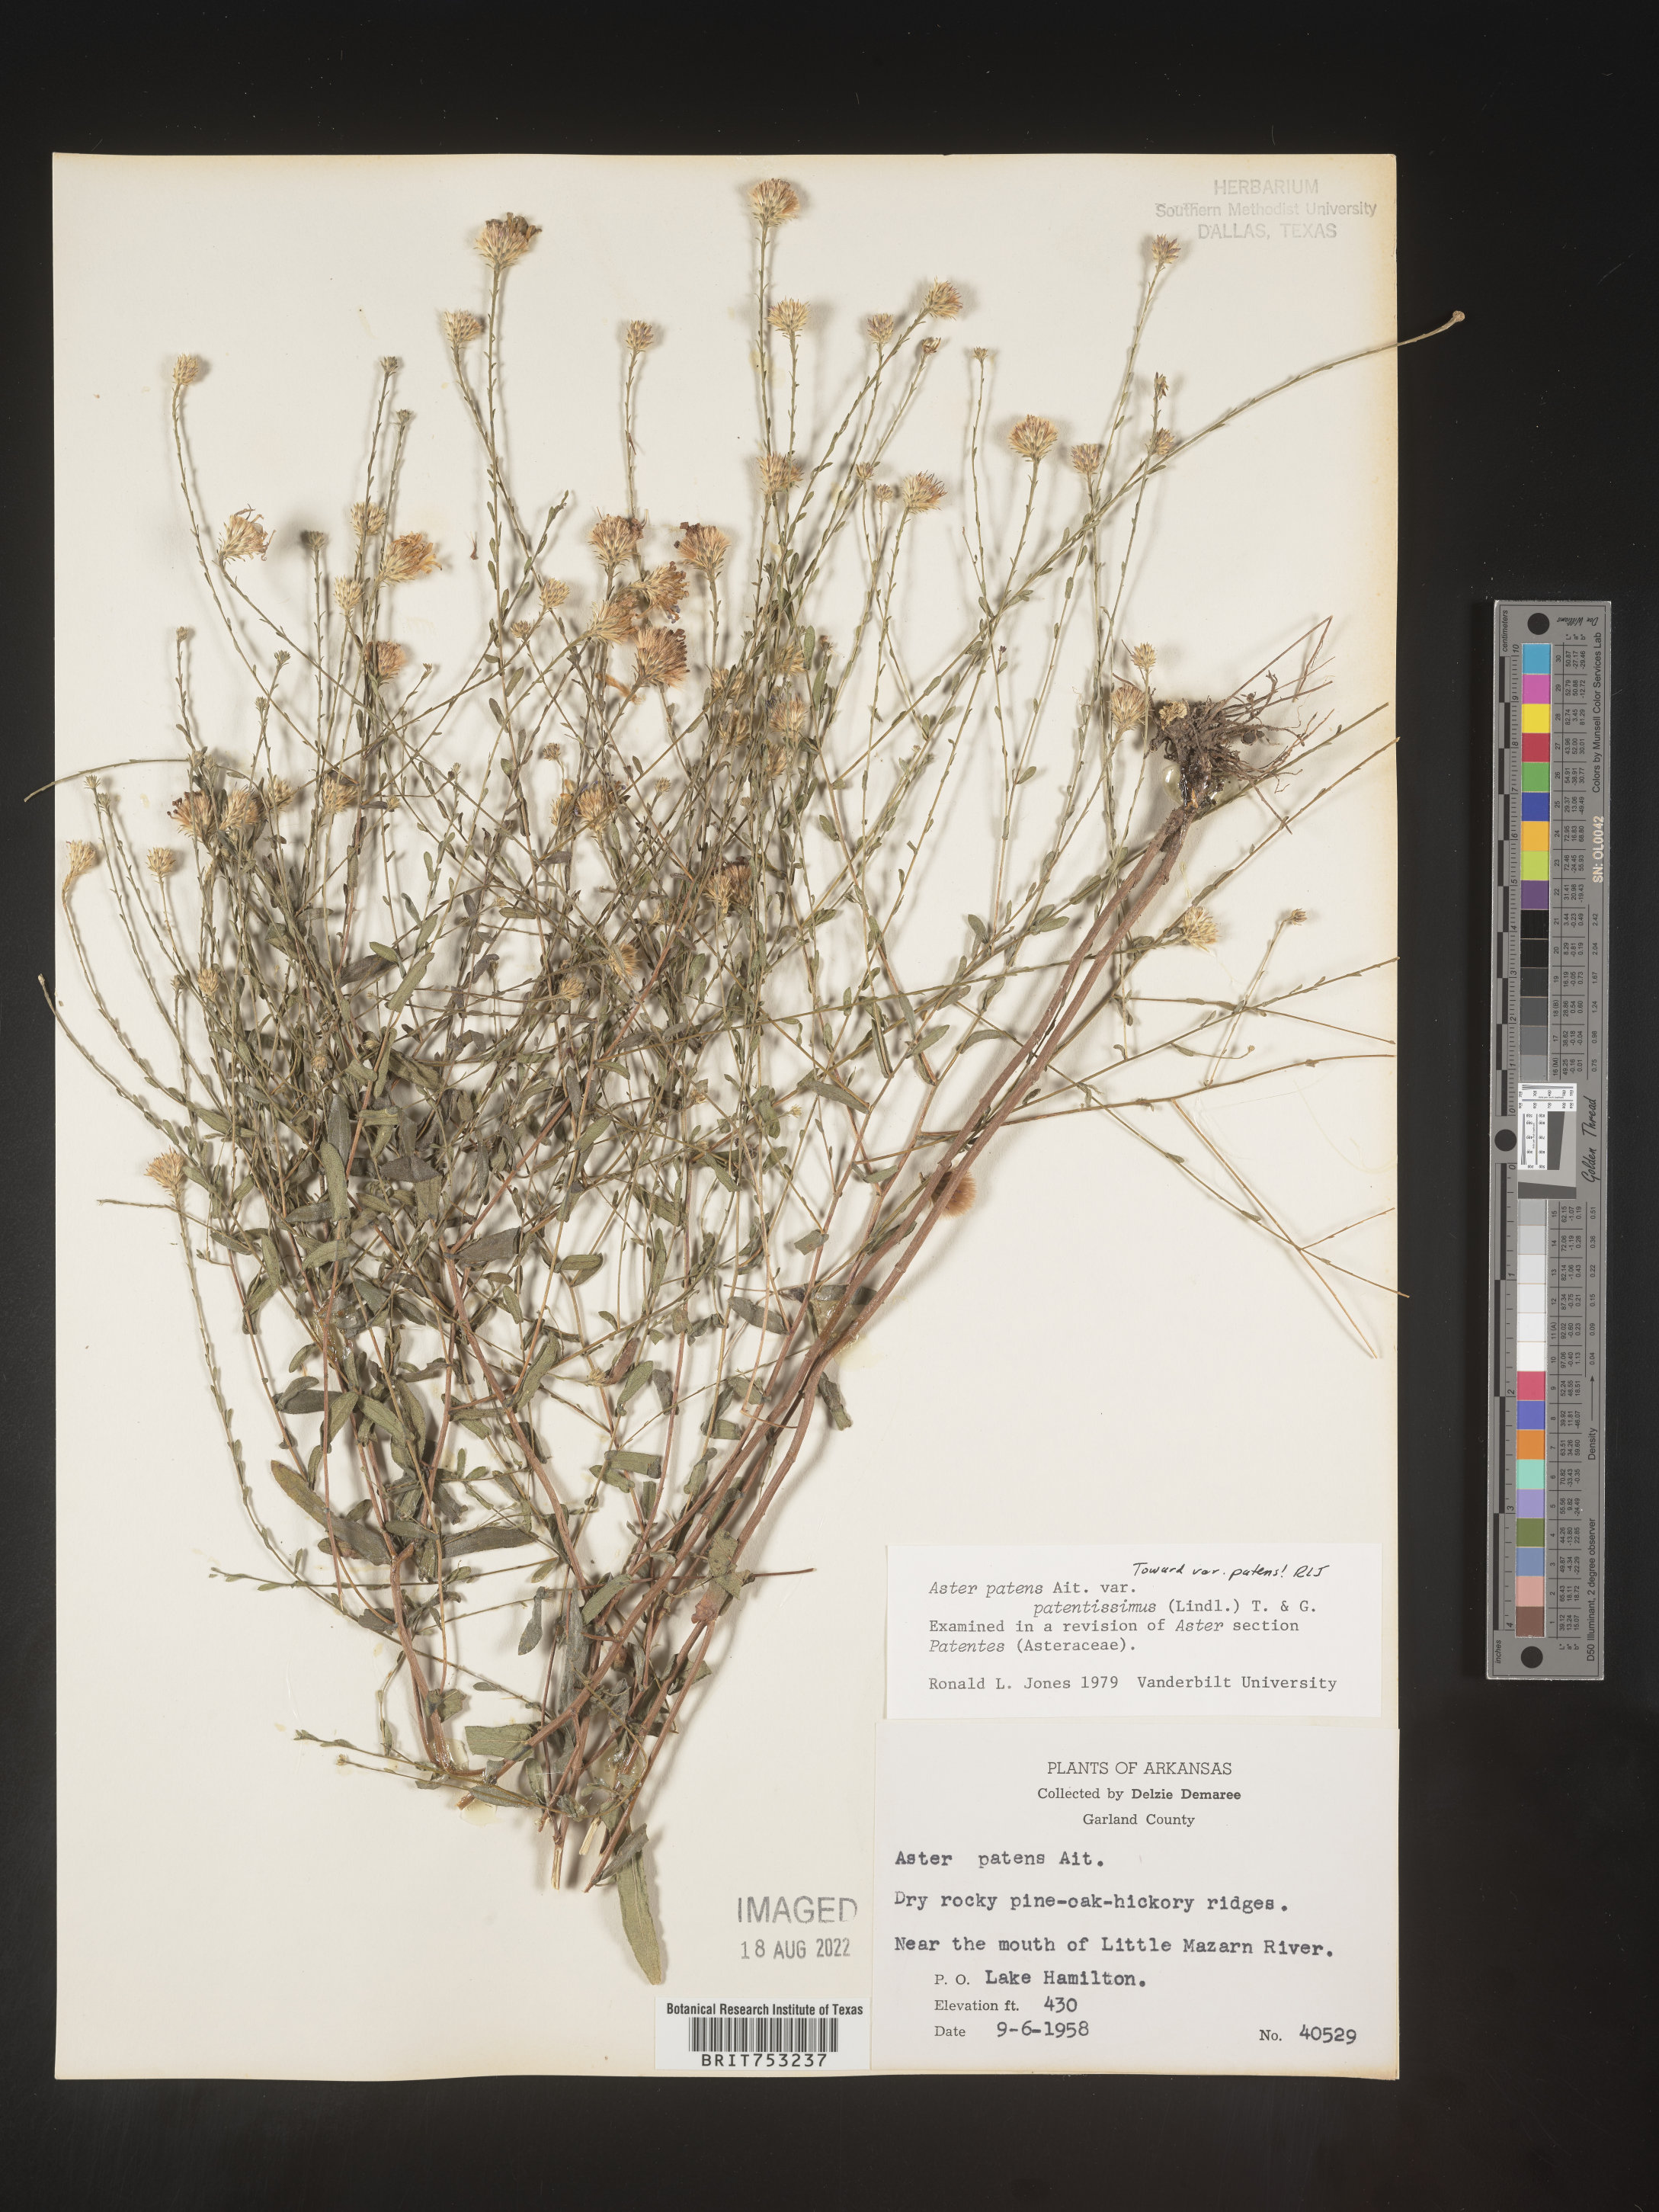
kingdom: Plantae
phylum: Tracheophyta
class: Magnoliopsida
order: Asterales
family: Asteraceae
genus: Symphyotrichum
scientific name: Symphyotrichum patens
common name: Late purple aster
